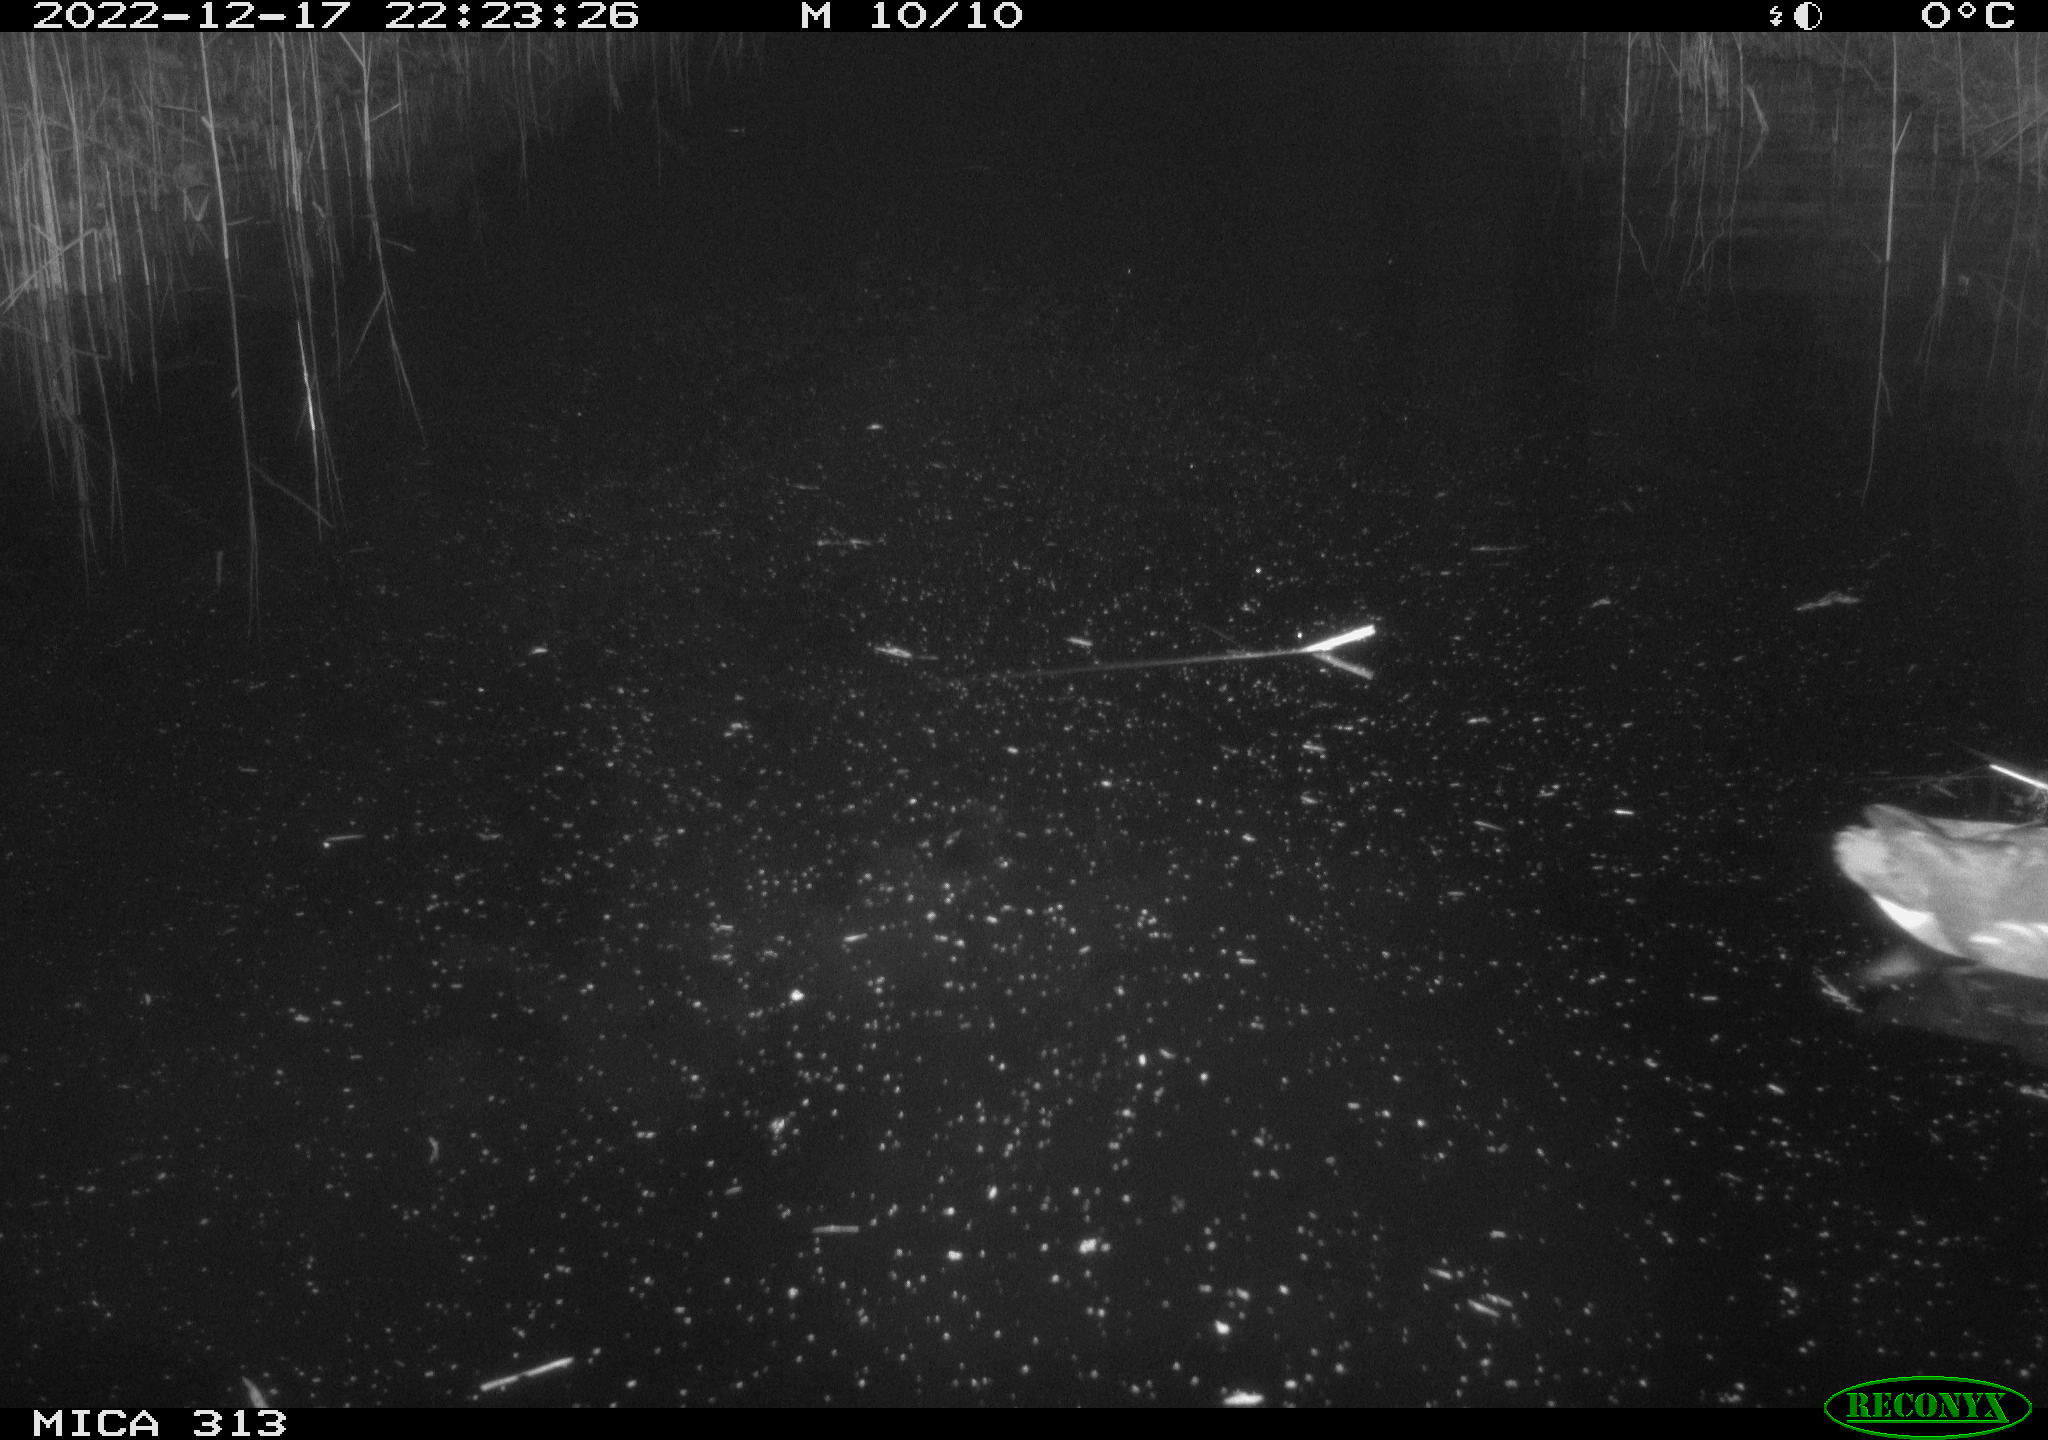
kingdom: Animalia
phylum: Chordata
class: Aves
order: Anseriformes
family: Anatidae
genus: Anas
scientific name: Anas
